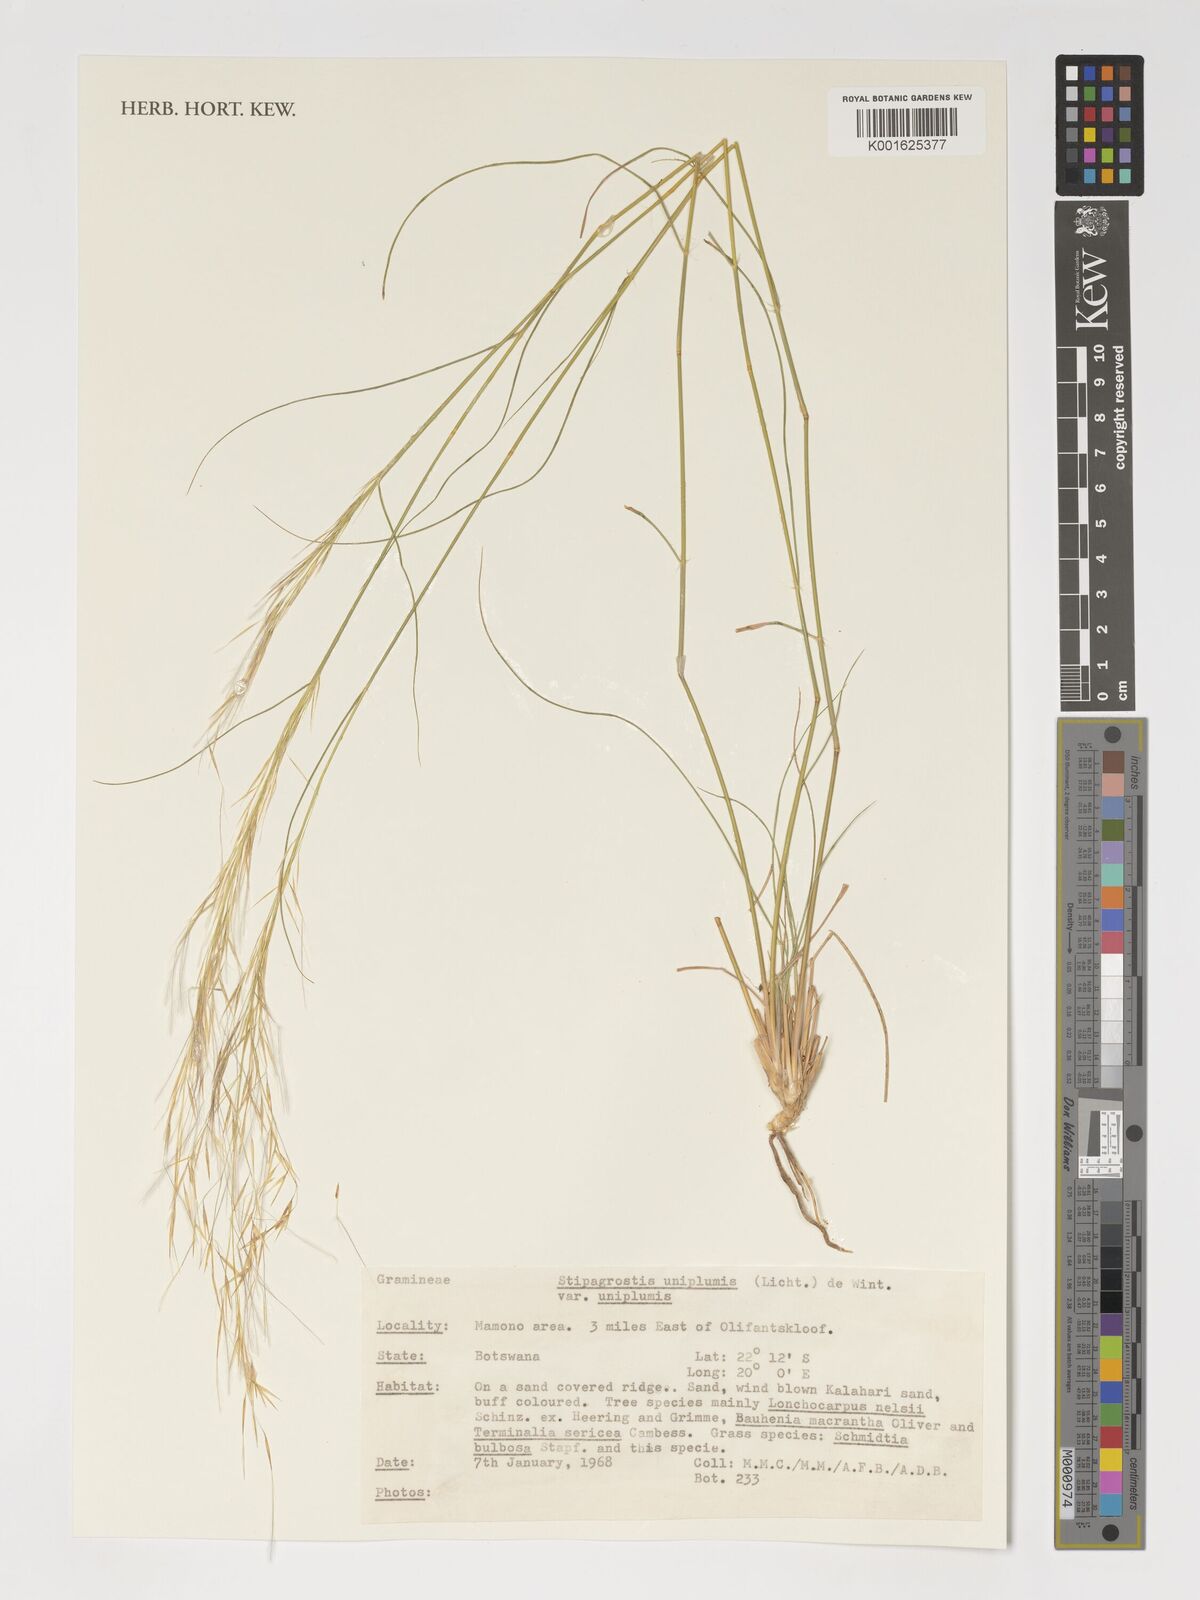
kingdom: Plantae
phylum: Tracheophyta
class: Liliopsida
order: Poales
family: Poaceae
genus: Stipagrostis
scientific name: Stipagrostis uniplumis
